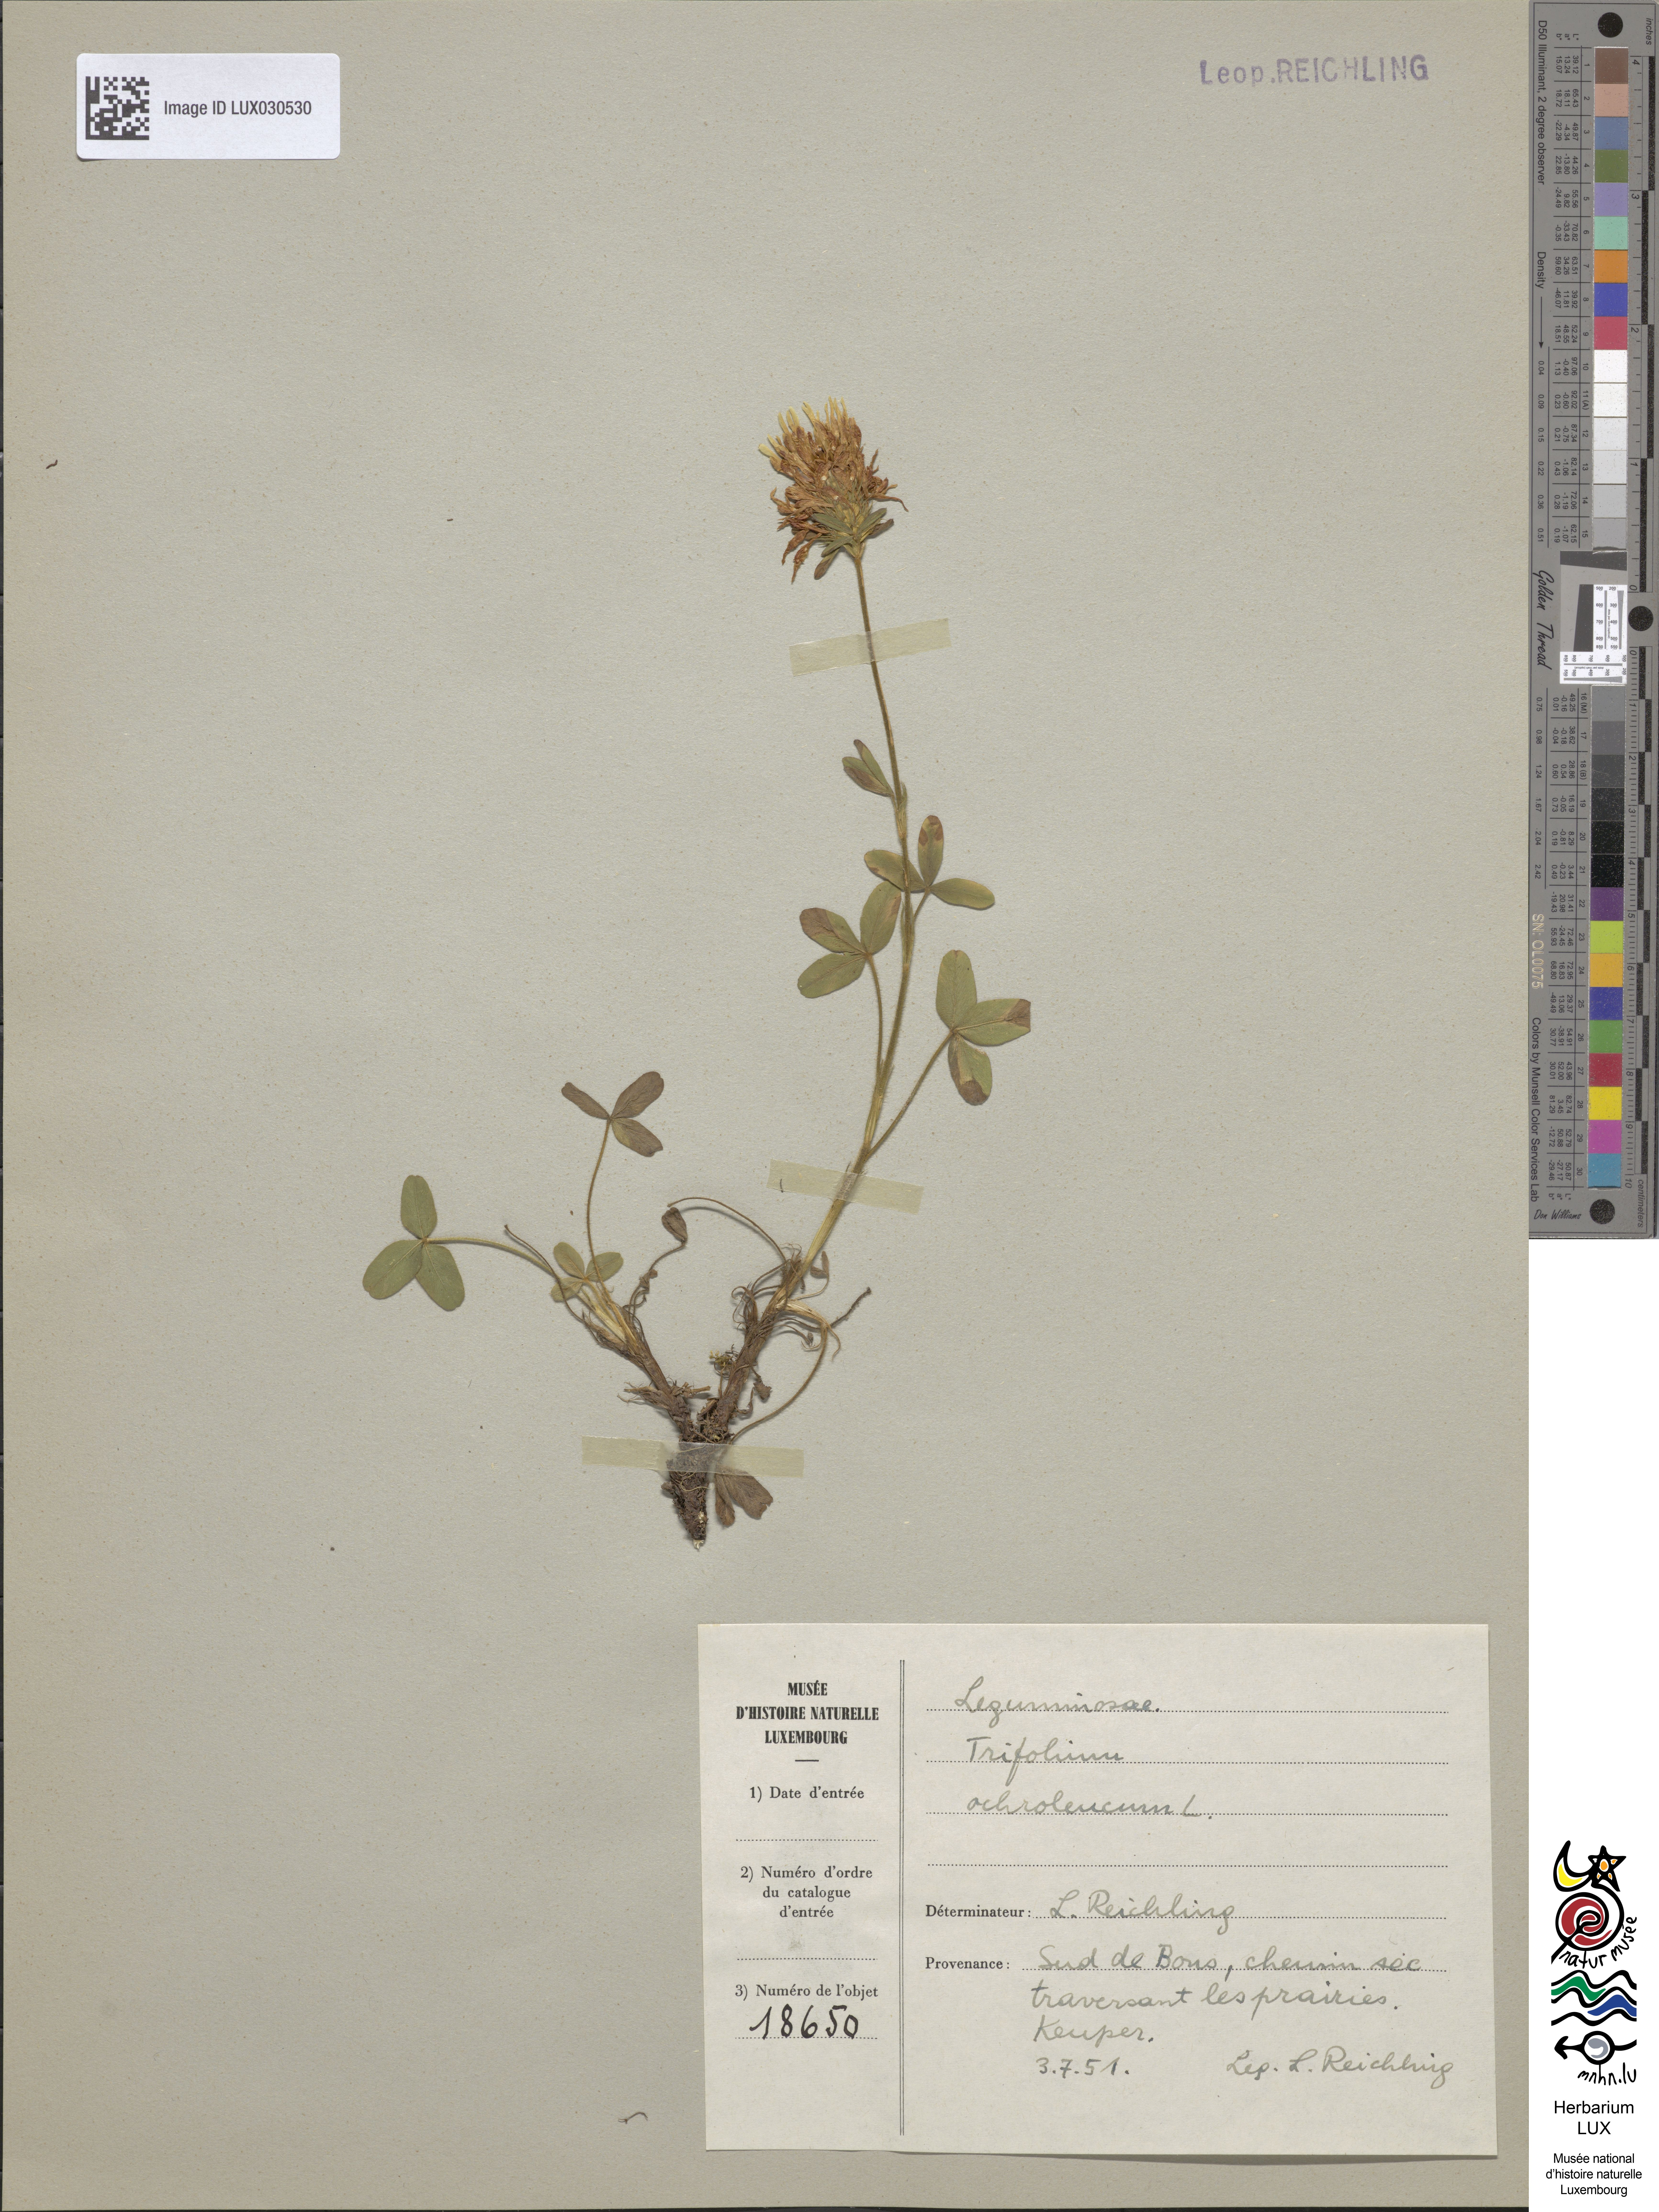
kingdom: Plantae
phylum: Tracheophyta
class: Magnoliopsida
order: Fabales
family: Fabaceae
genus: Trifolium
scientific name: Trifolium ochroleucon
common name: Sulphur clover
